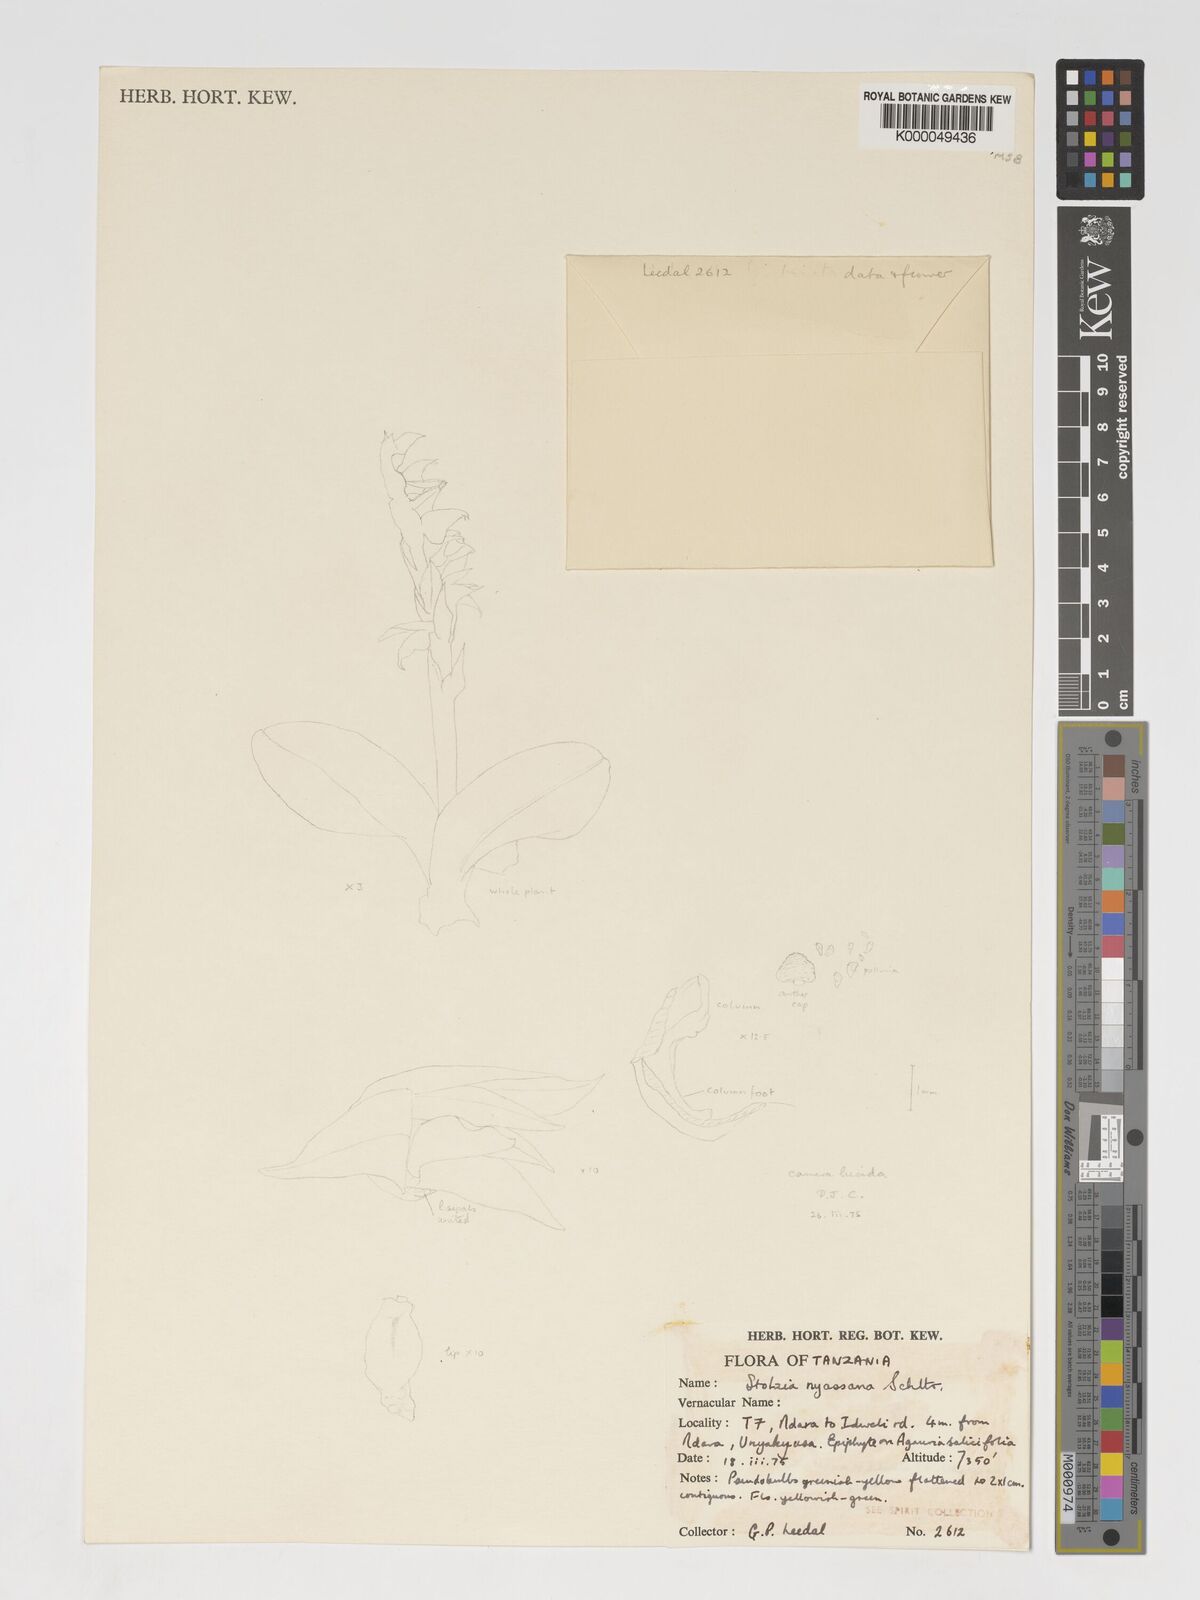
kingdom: Plantae
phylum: Tracheophyta
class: Liliopsida
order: Asparagales
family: Orchidaceae
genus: Porpax
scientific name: Porpax nyassana
